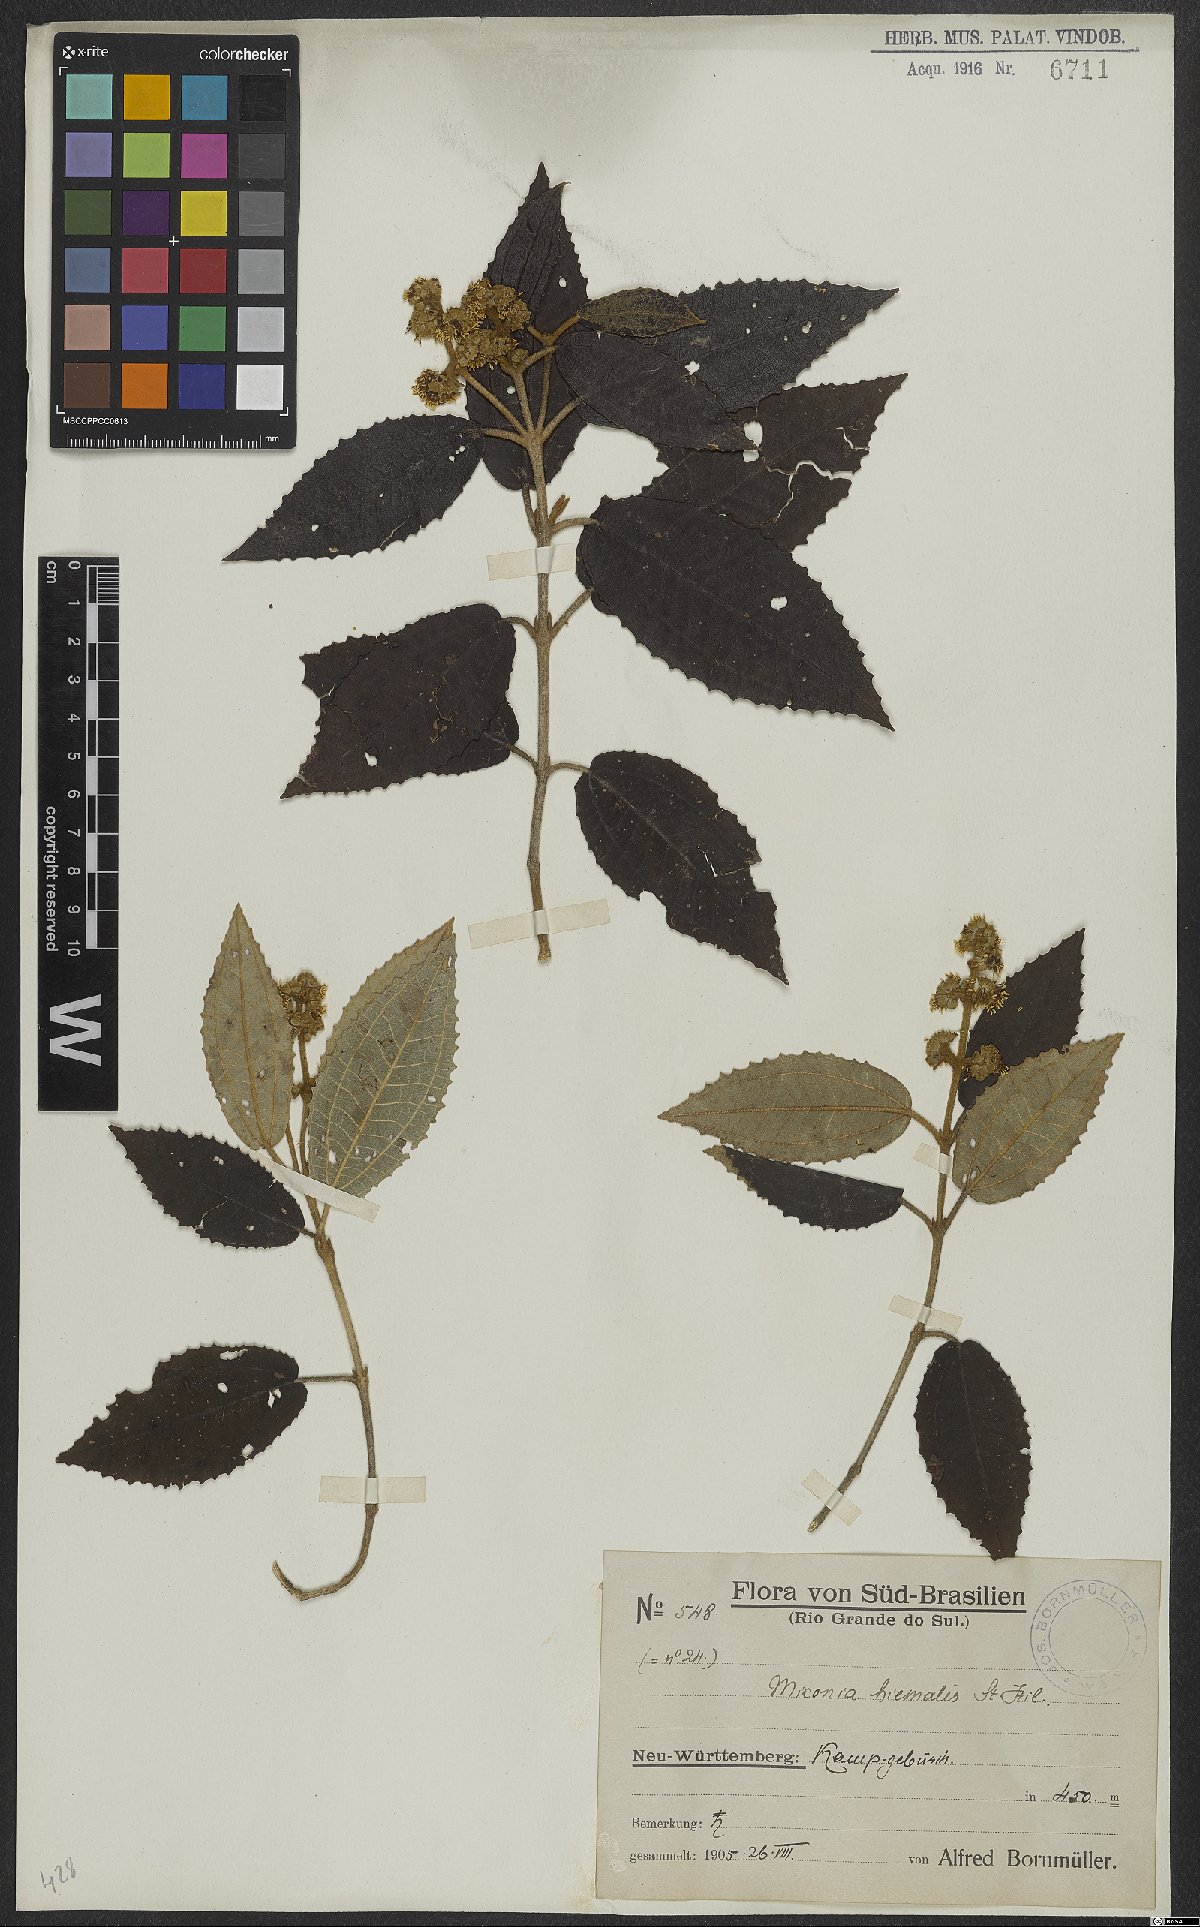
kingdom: Plantae
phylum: Tracheophyta
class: Magnoliopsida
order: Myrtales
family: Melastomataceae
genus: Miconia
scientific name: Miconia hyemalis
